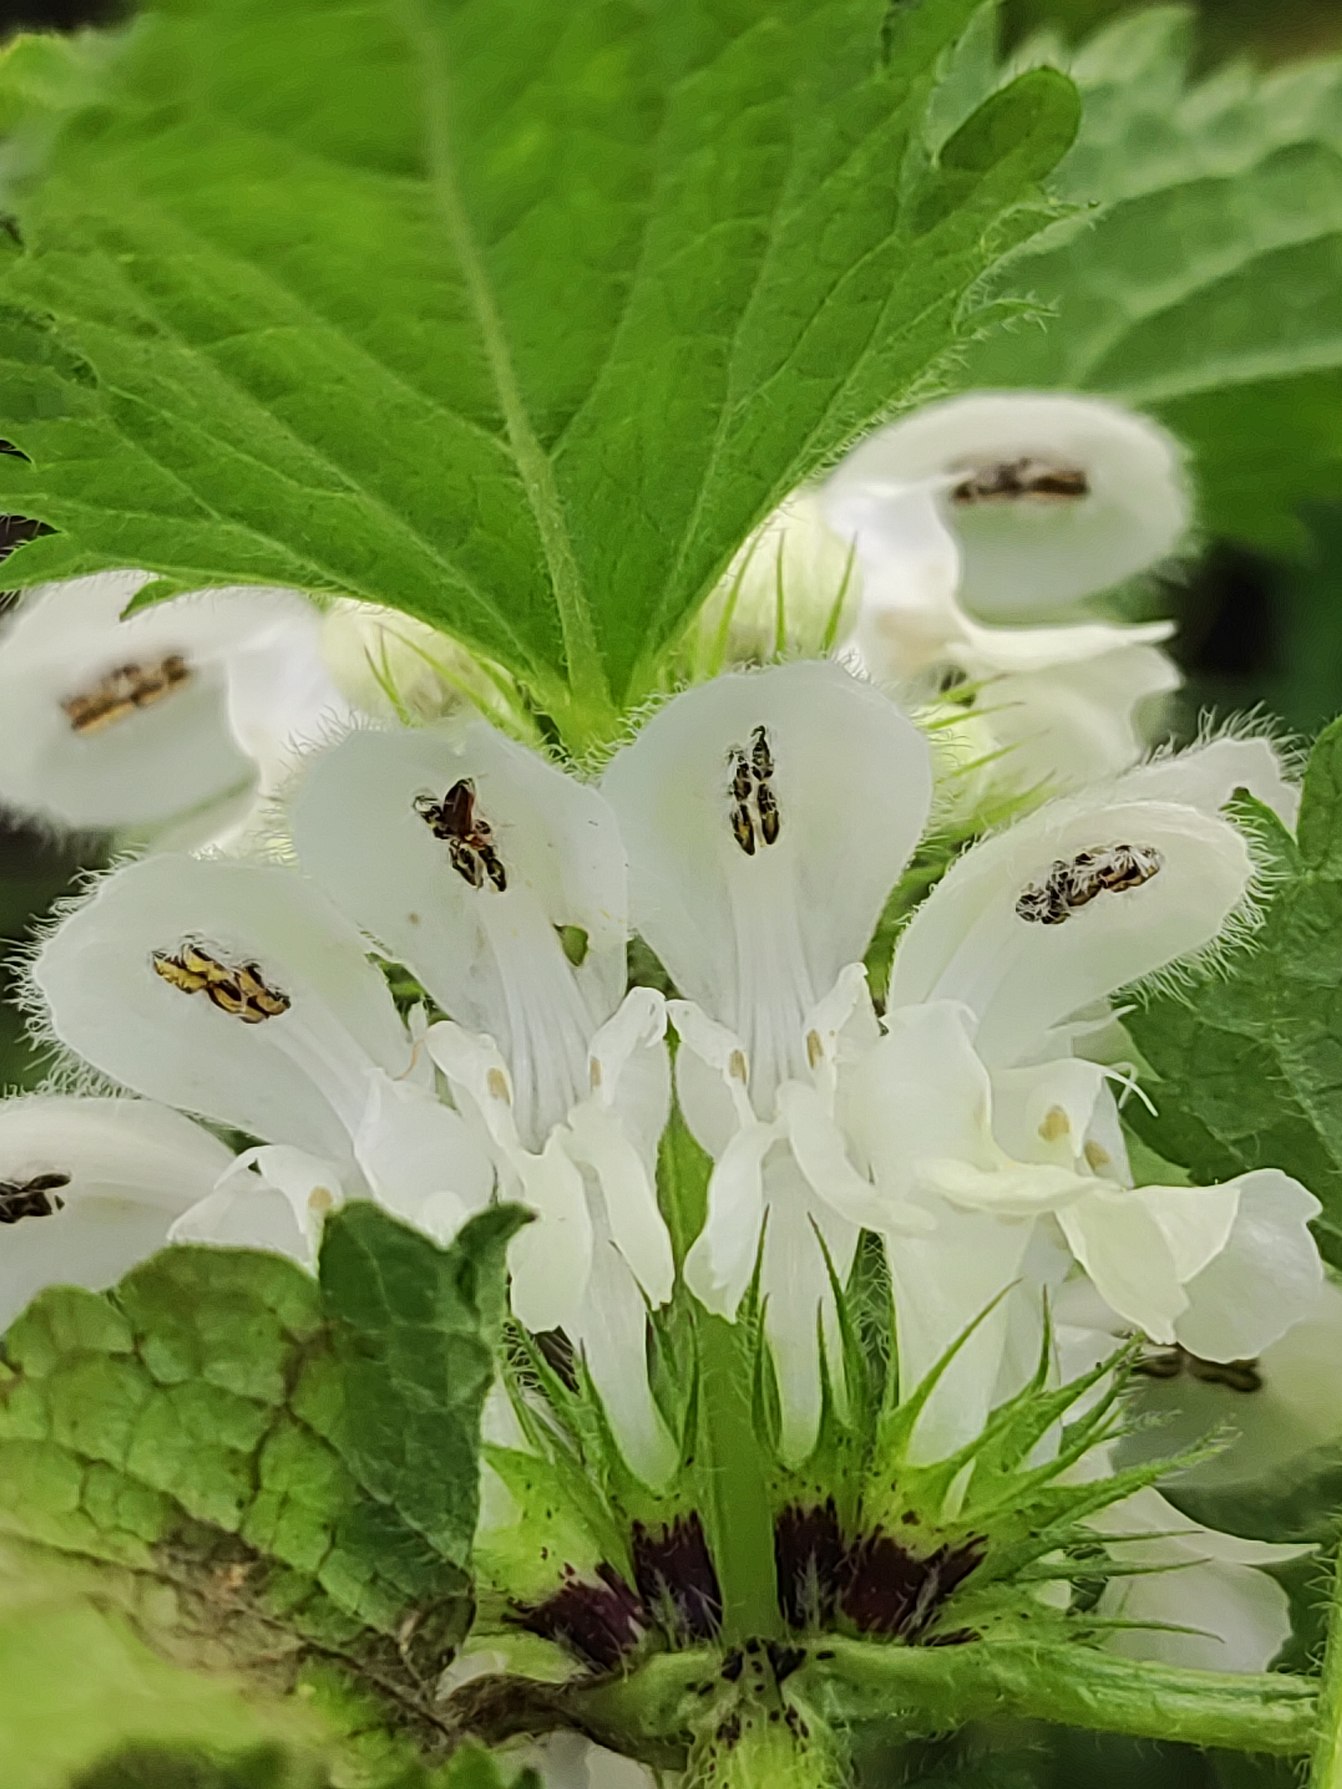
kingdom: Plantae
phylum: Tracheophyta
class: Magnoliopsida
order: Lamiales
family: Lamiaceae
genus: Lamium
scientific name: Lamium album
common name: Døvnælde
